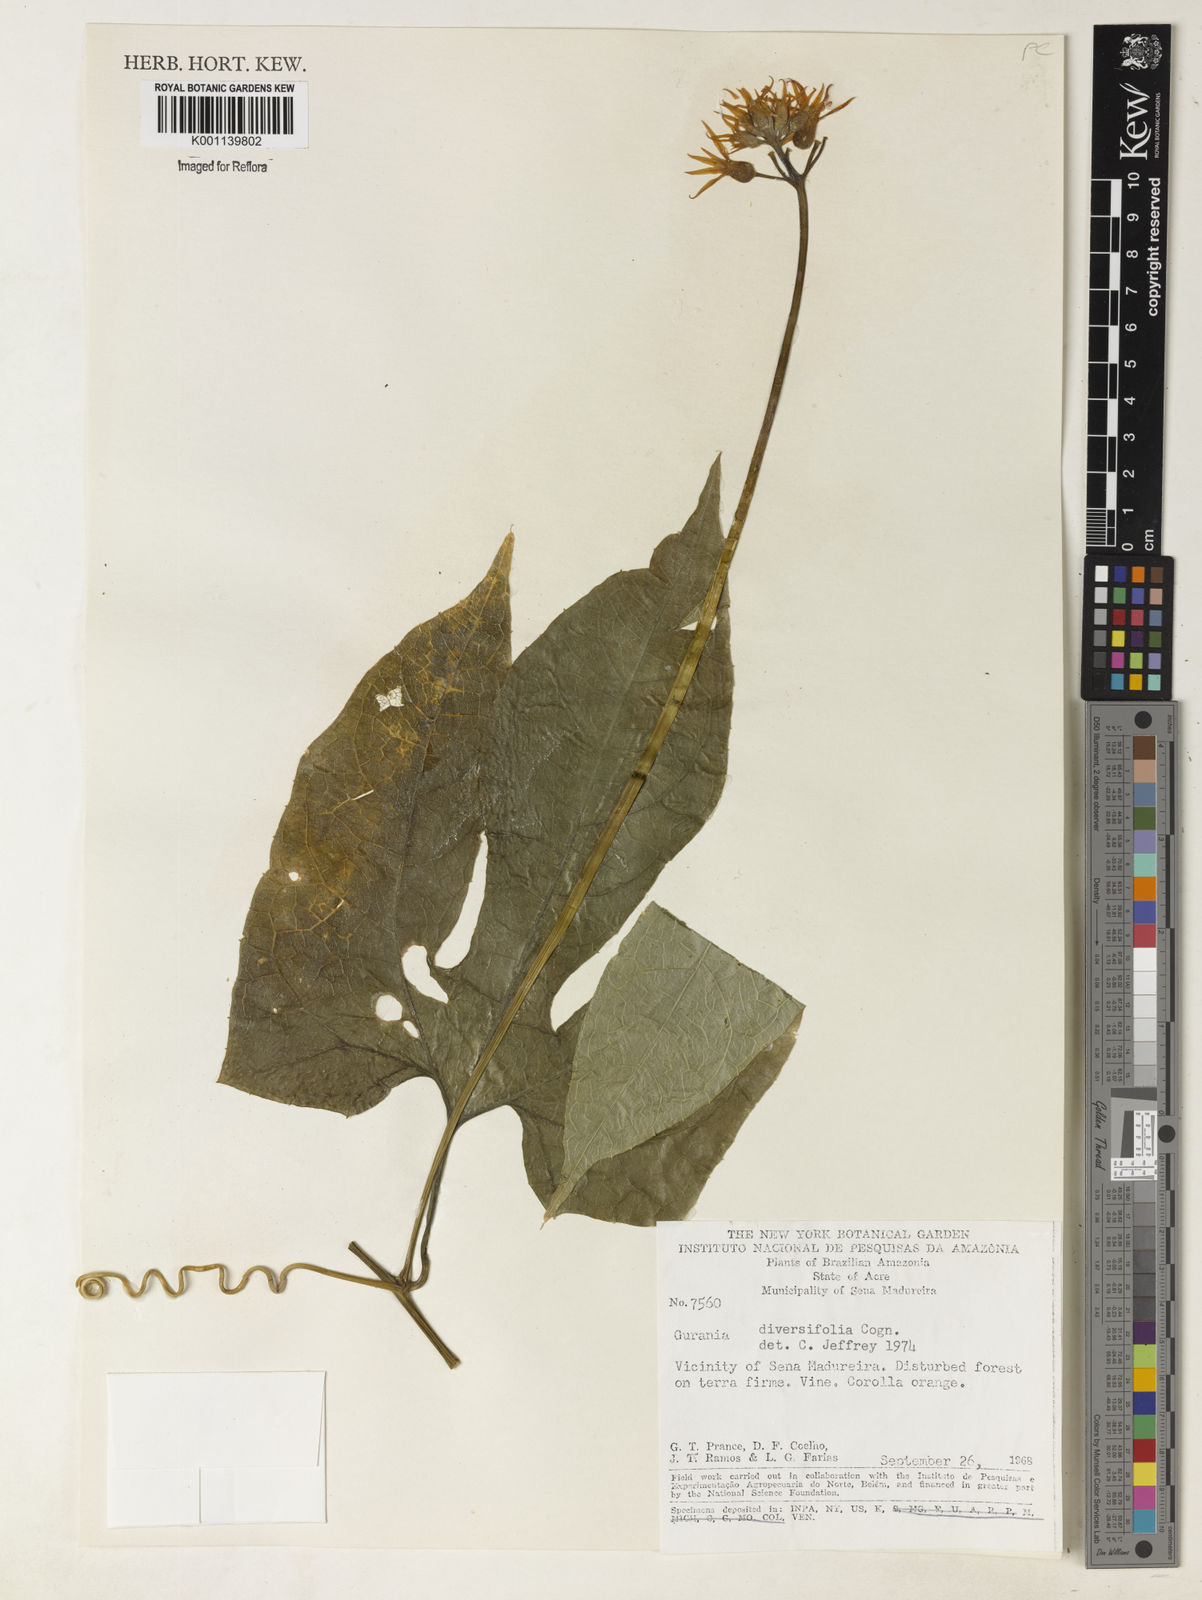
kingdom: Plantae
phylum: Tracheophyta
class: Magnoliopsida
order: Cucurbitales
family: Cucurbitaceae
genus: Gurania
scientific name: Gurania acuminata
